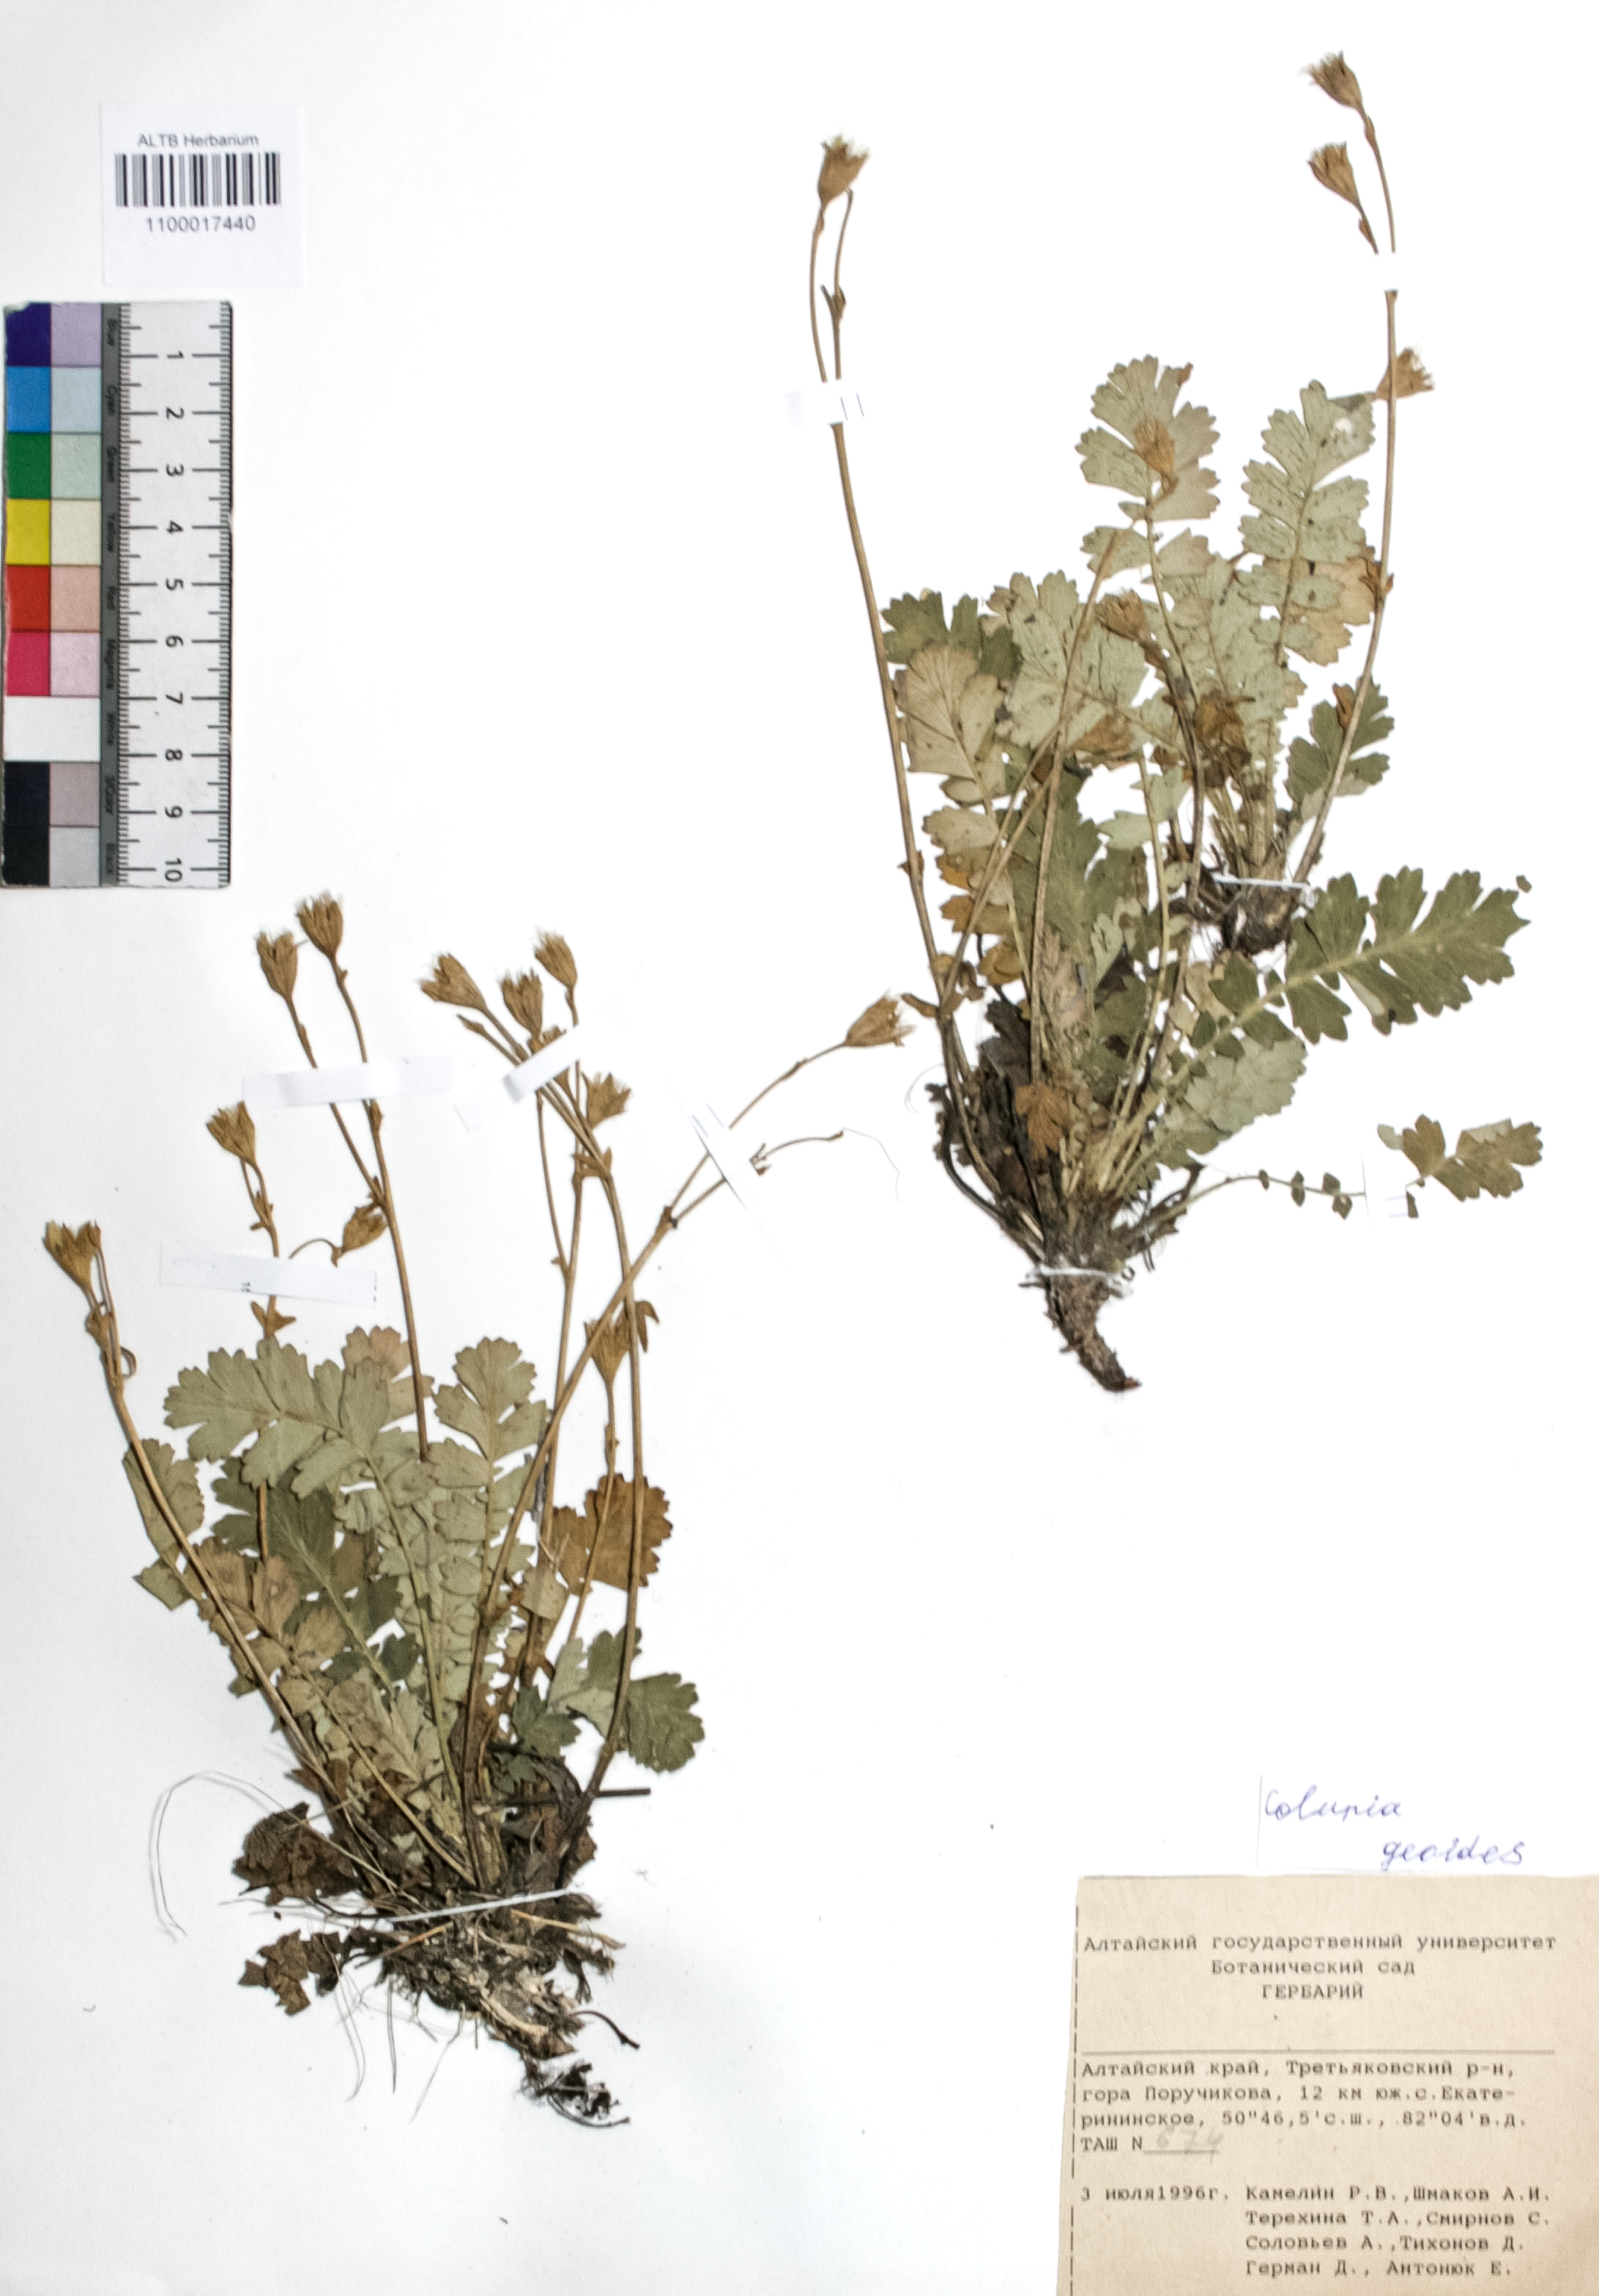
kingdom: Plantae
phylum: Tracheophyta
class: Magnoliopsida
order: Rosales
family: Rosaceae
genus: Geum
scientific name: Geum geoides
